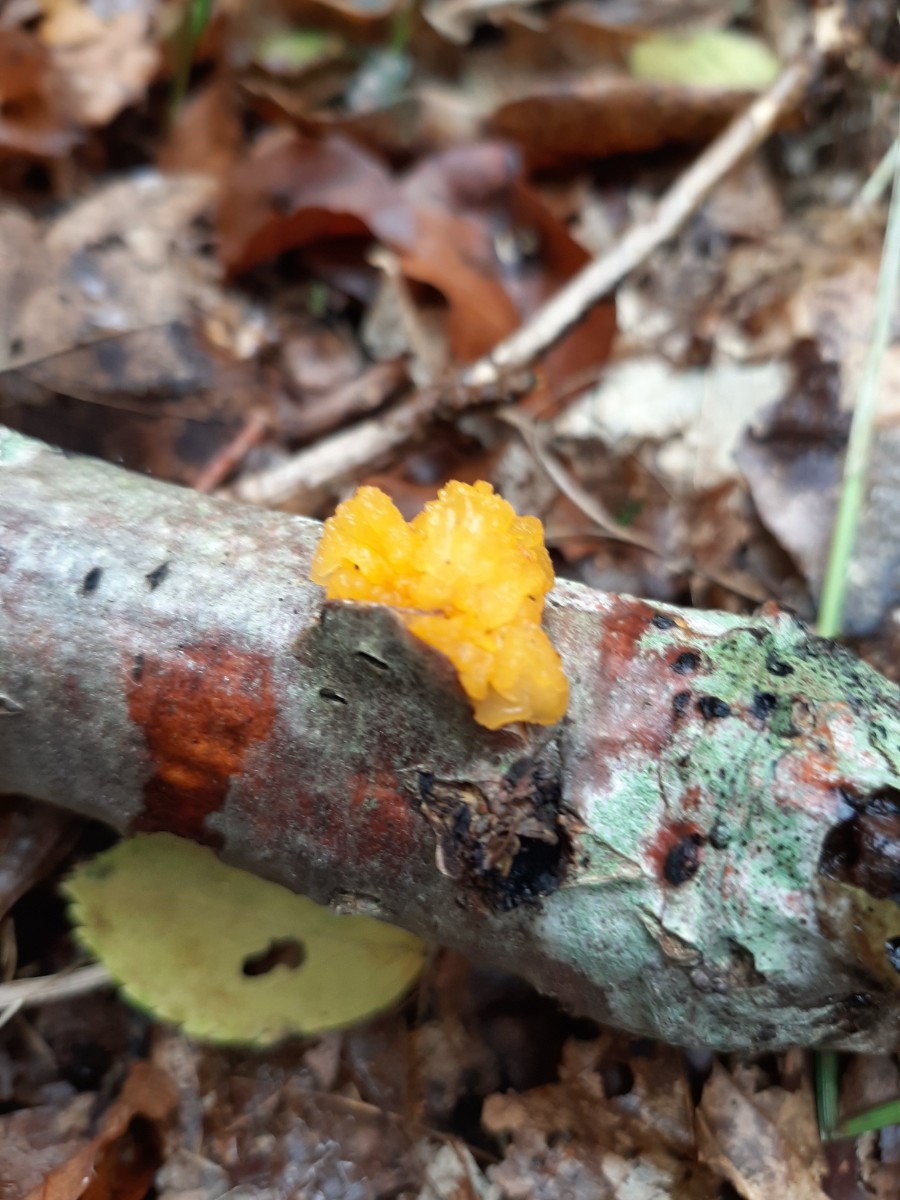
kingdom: Fungi
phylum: Basidiomycota
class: Tremellomycetes
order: Tremellales
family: Tremellaceae
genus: Tremella
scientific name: Tremella mesenterica
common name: gul bævresvamp
